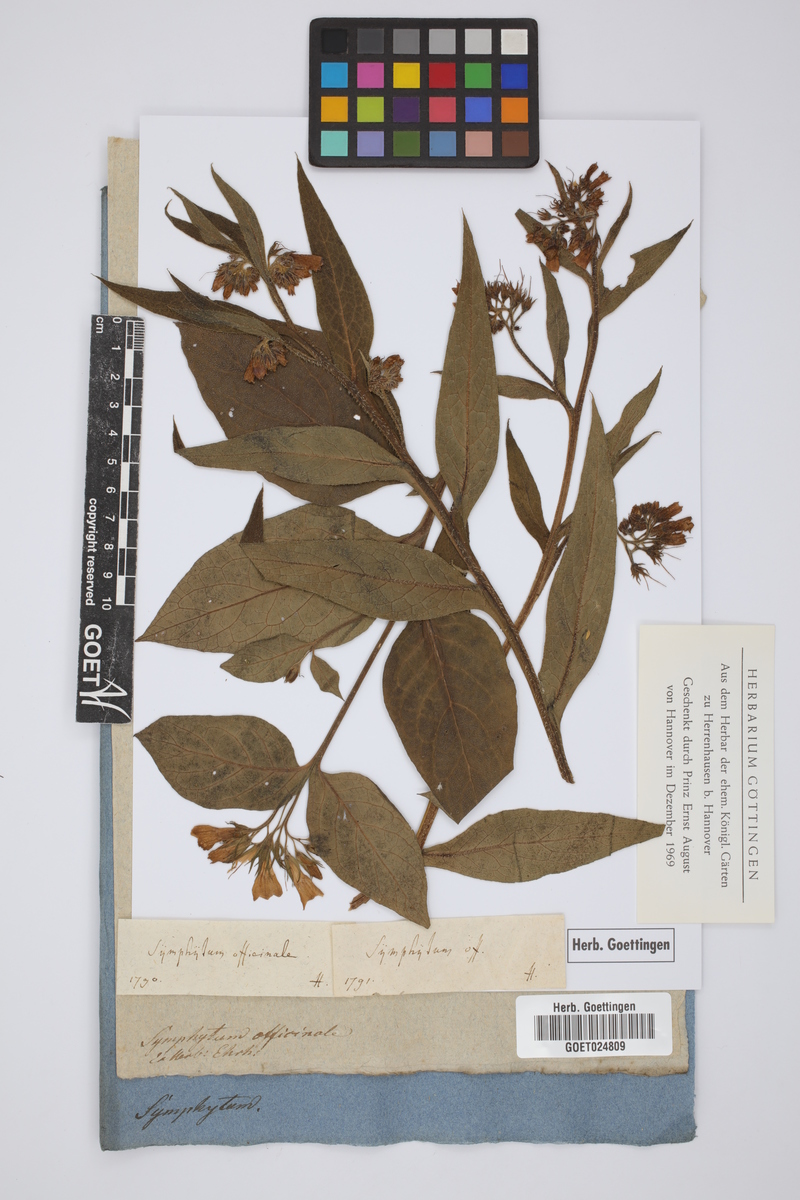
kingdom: Plantae
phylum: Tracheophyta
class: Magnoliopsida
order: Boraginales
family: Boraginaceae
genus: Symphytum
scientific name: Symphytum officinale
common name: Common comfrey
